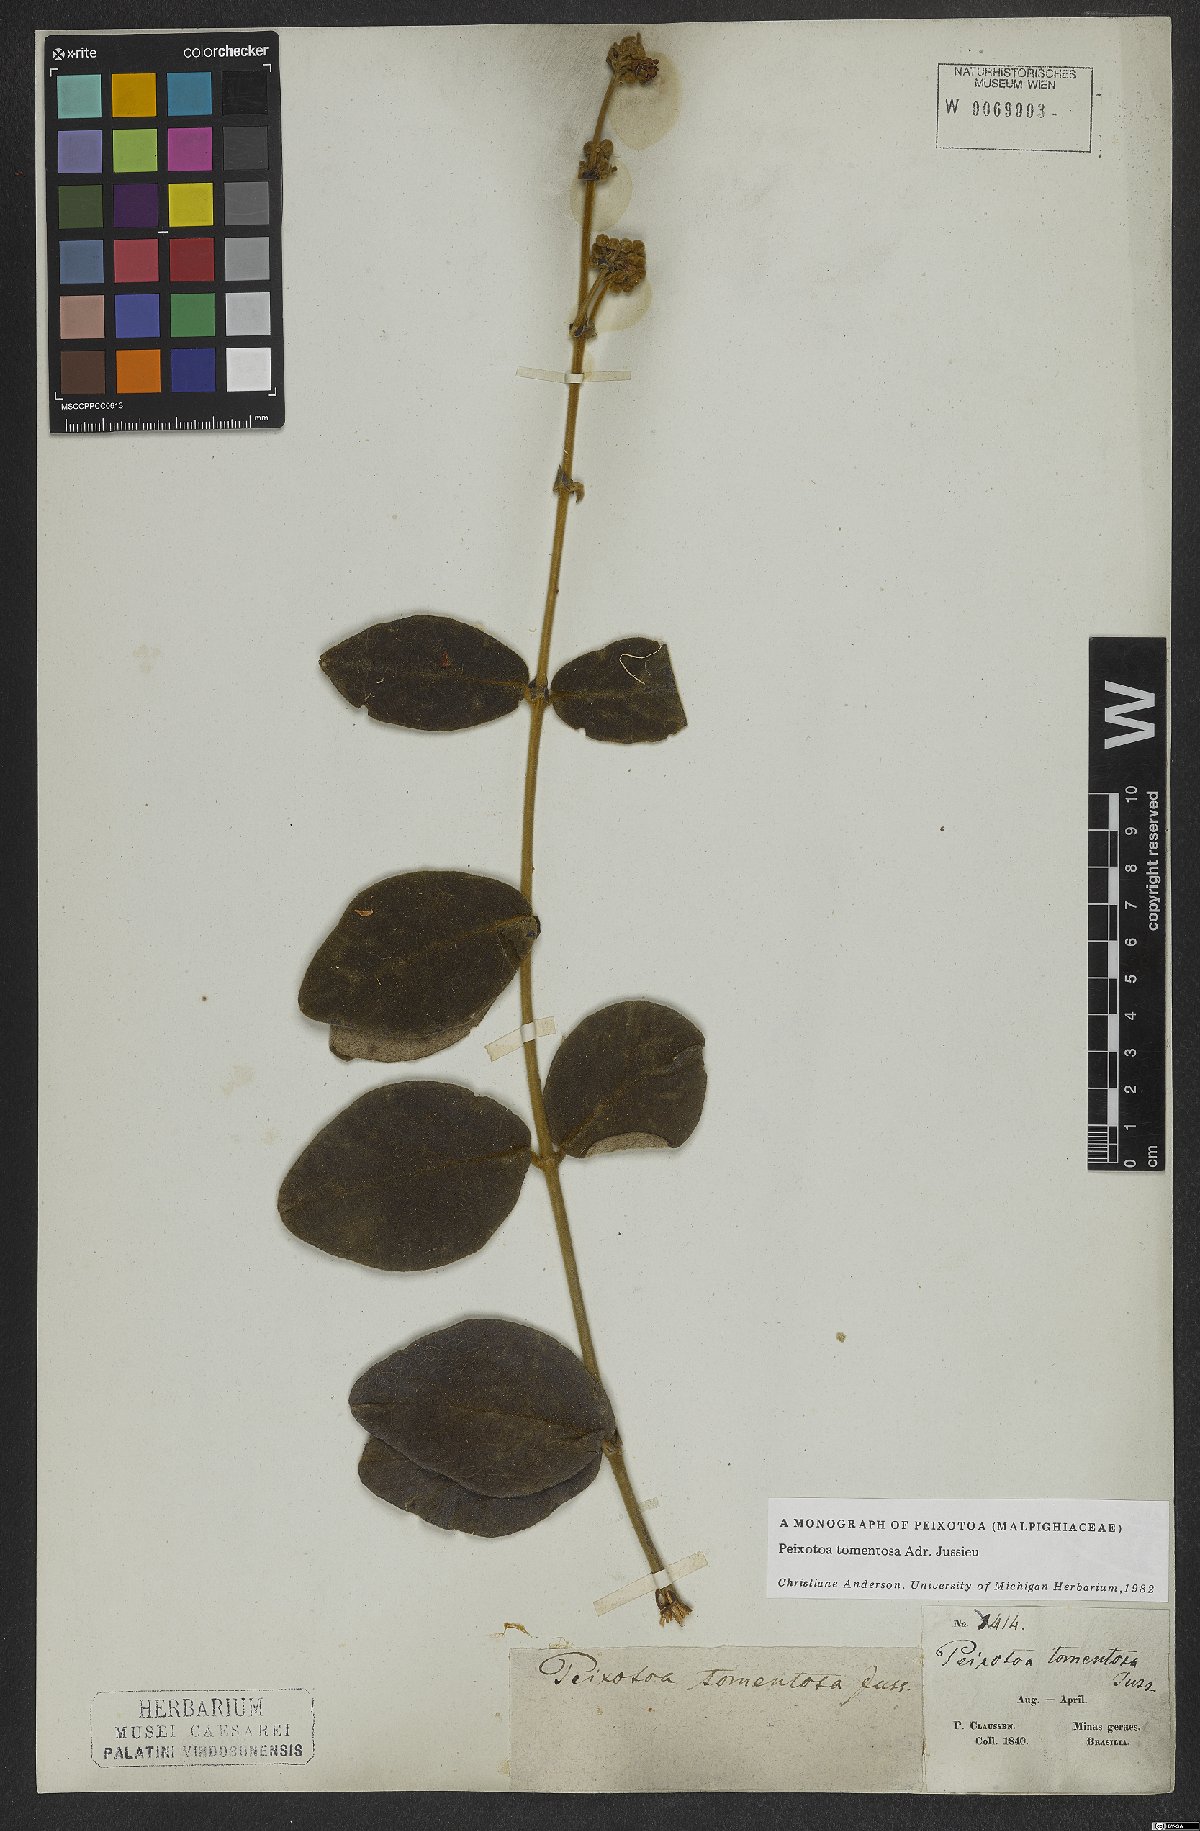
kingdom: Plantae
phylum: Tracheophyta
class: Magnoliopsida
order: Malpighiales
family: Malpighiaceae
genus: Peixotoa
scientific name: Peixotoa tomentosa
